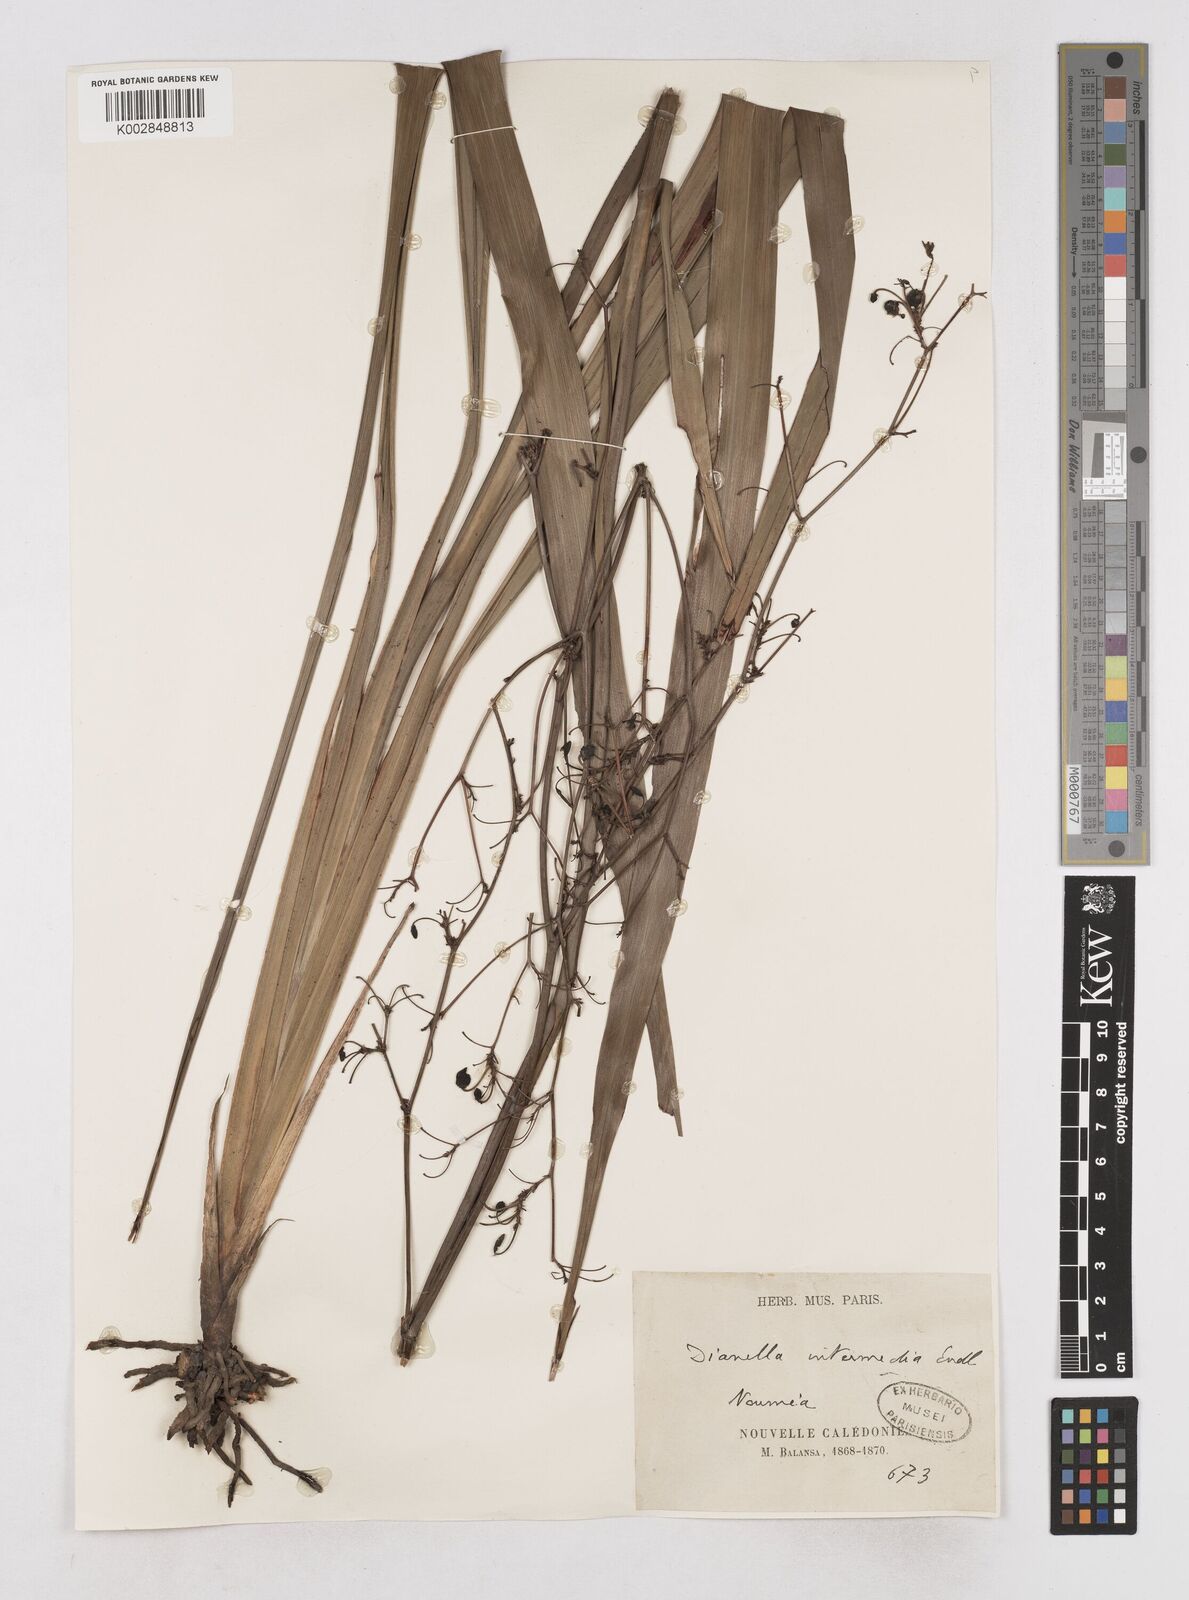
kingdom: Plantae
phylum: Tracheophyta
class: Liliopsida
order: Asparagales
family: Asphodelaceae
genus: Dianella
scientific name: Dianella intermedia
